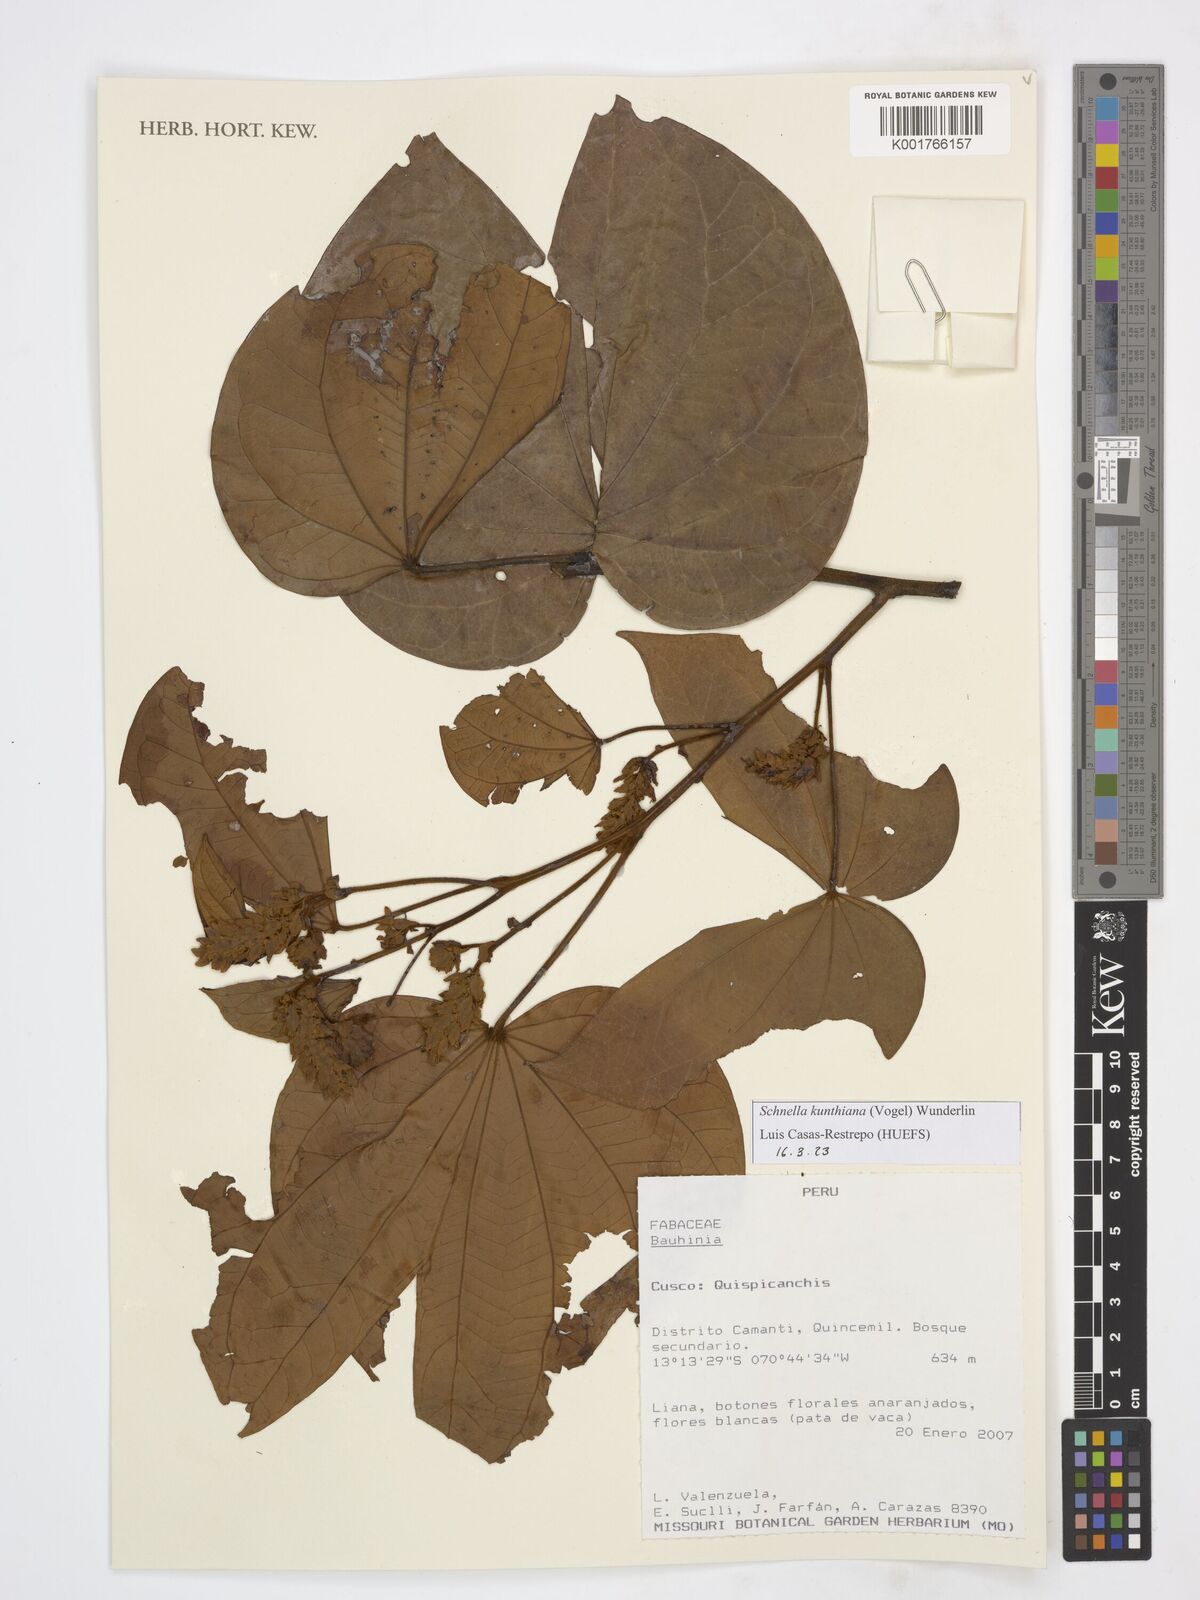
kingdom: Plantae
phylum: Tracheophyta
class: Magnoliopsida
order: Fabales
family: Fabaceae
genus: Schnella
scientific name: Schnella kunthiana
